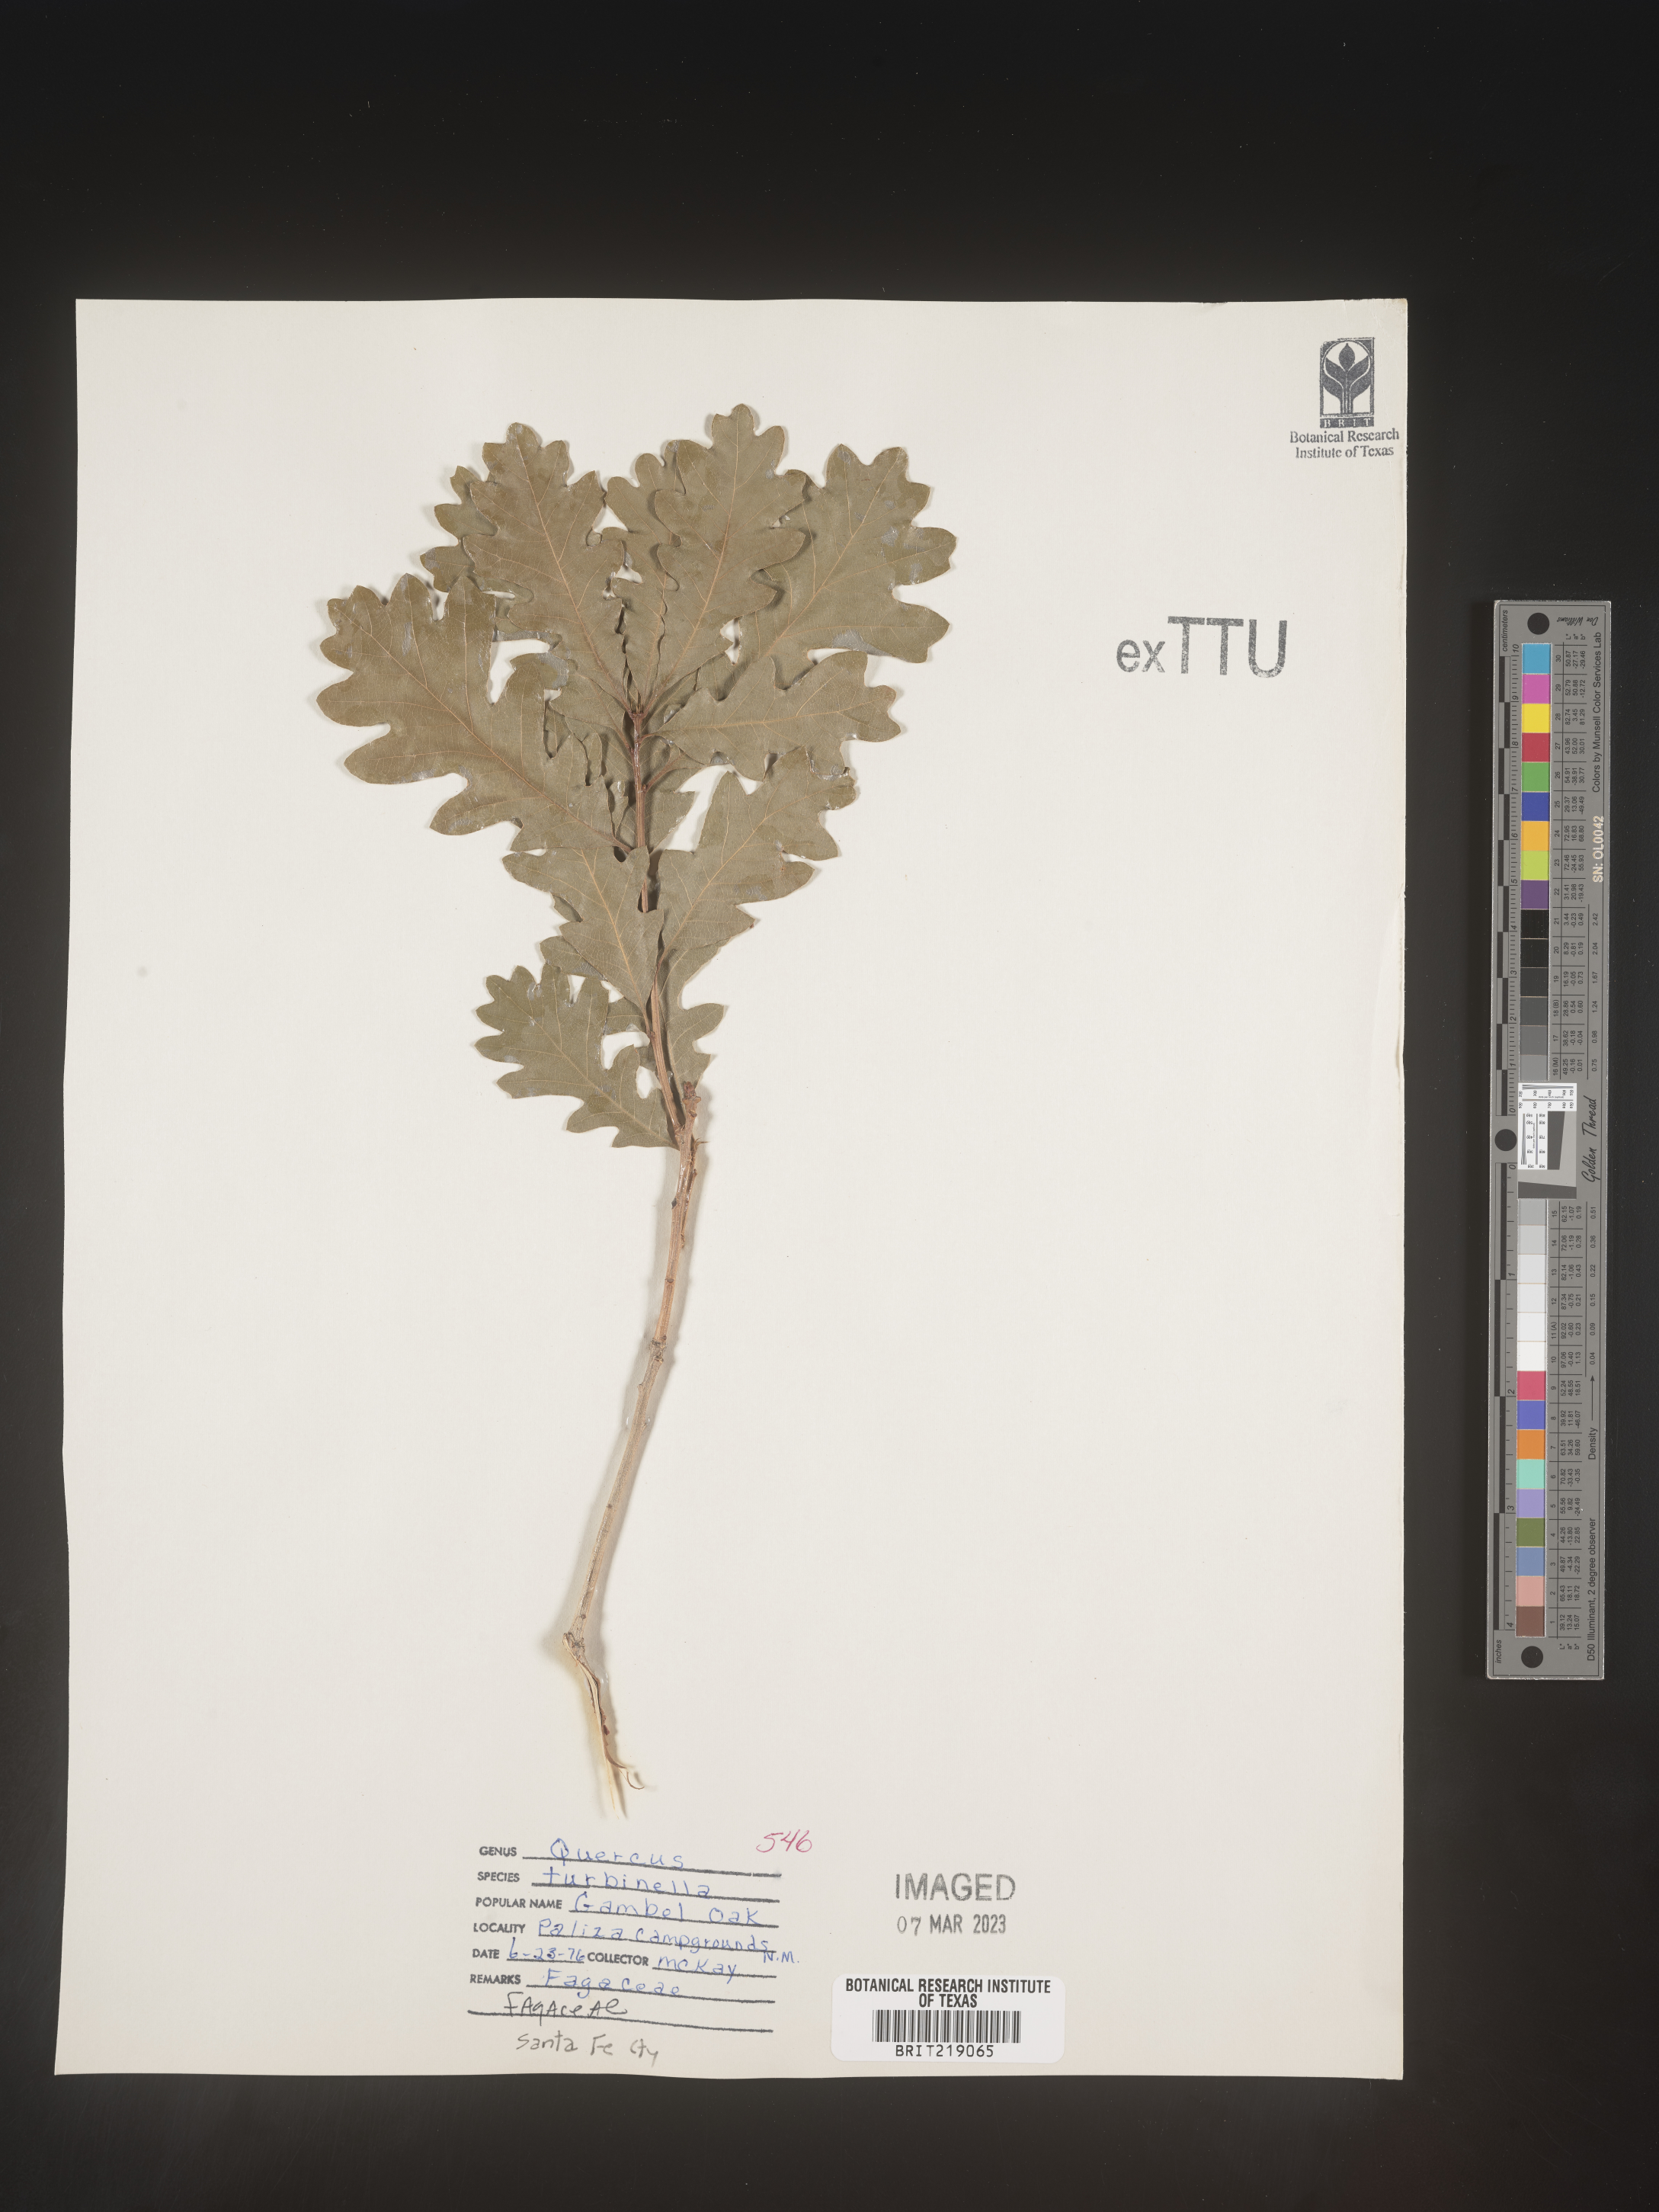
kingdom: Plantae
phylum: Tracheophyta
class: Magnoliopsida
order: Fagales
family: Fagaceae
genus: Quercus
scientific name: Quercus turbinella
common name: Sonoran scrub oak
